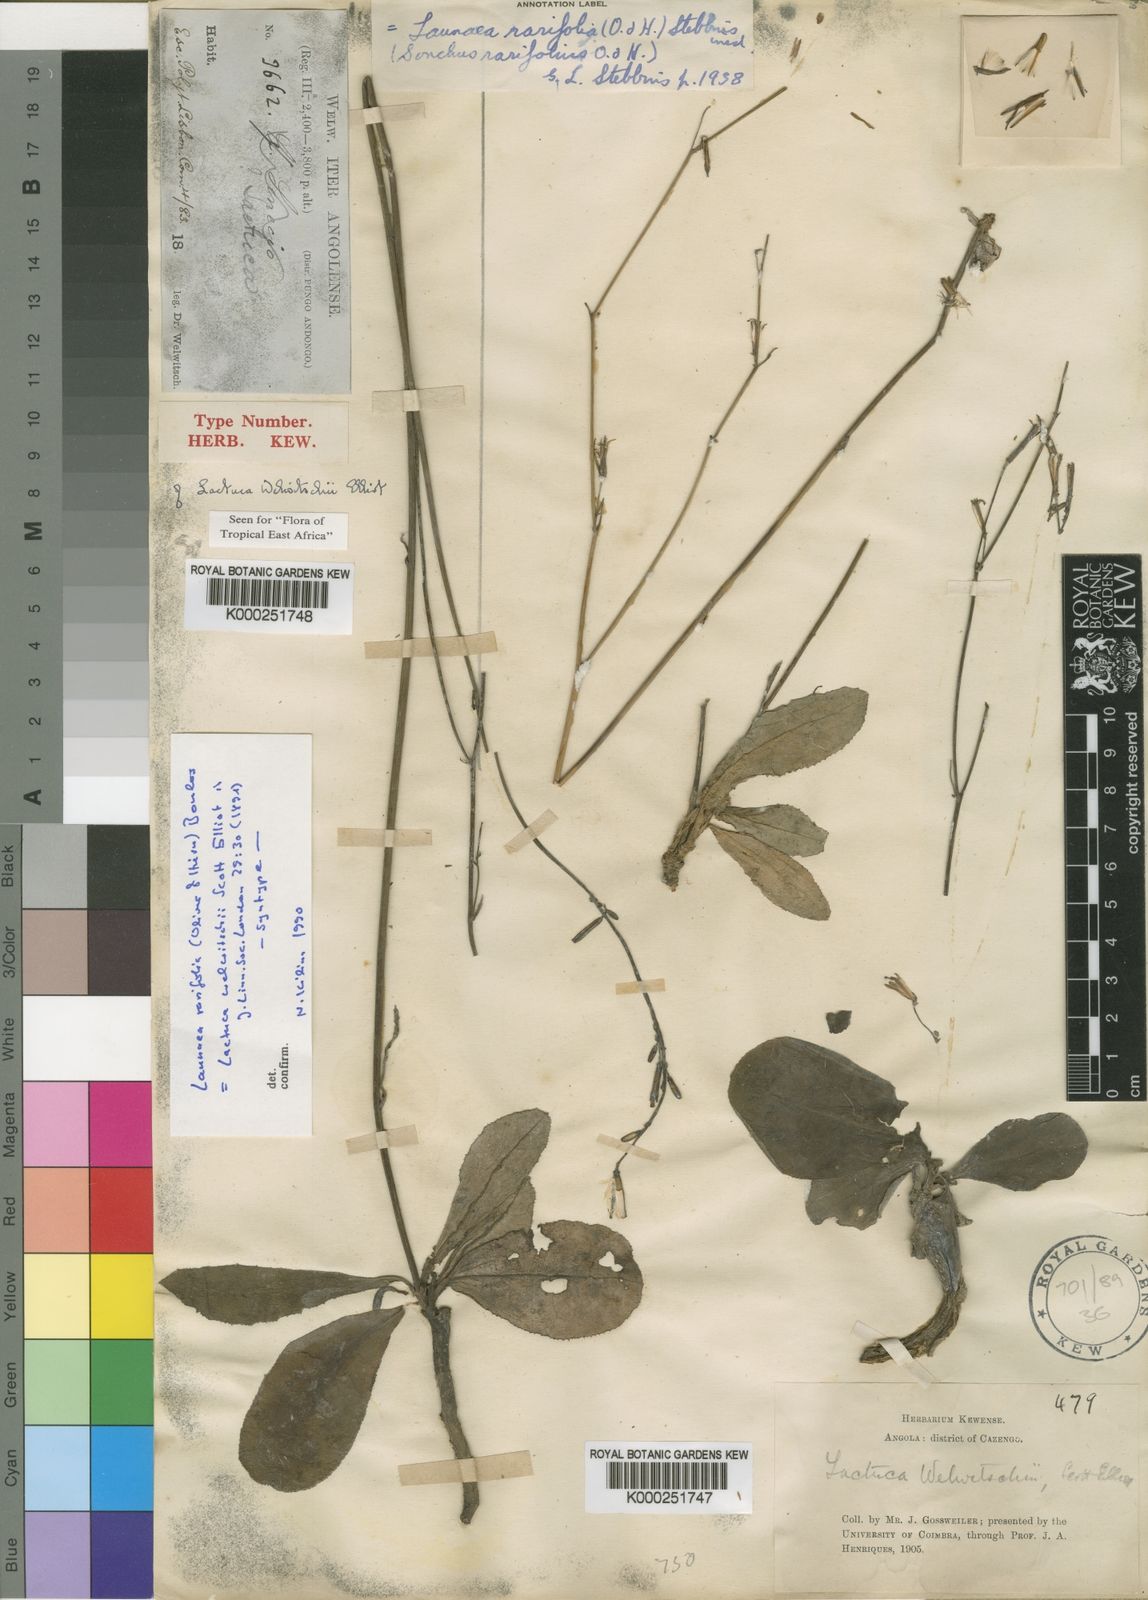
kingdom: Plantae
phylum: Tracheophyta
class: Magnoliopsida
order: Asterales
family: Asteraceae
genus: Launaea
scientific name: Launaea rarifolia
